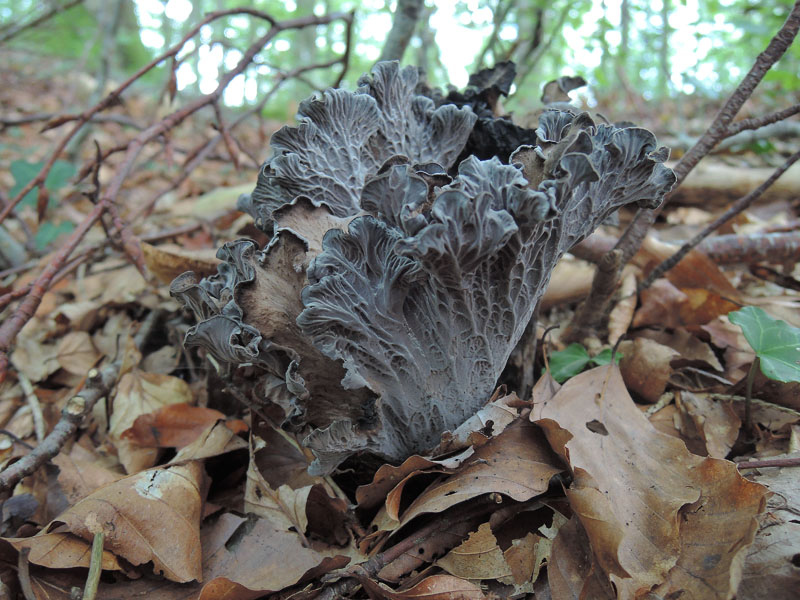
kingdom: Fungi
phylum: Basidiomycota
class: Agaricomycetes
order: Cantharellales
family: Hydnaceae
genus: Cantharellus
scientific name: Cantharellus cinereus
